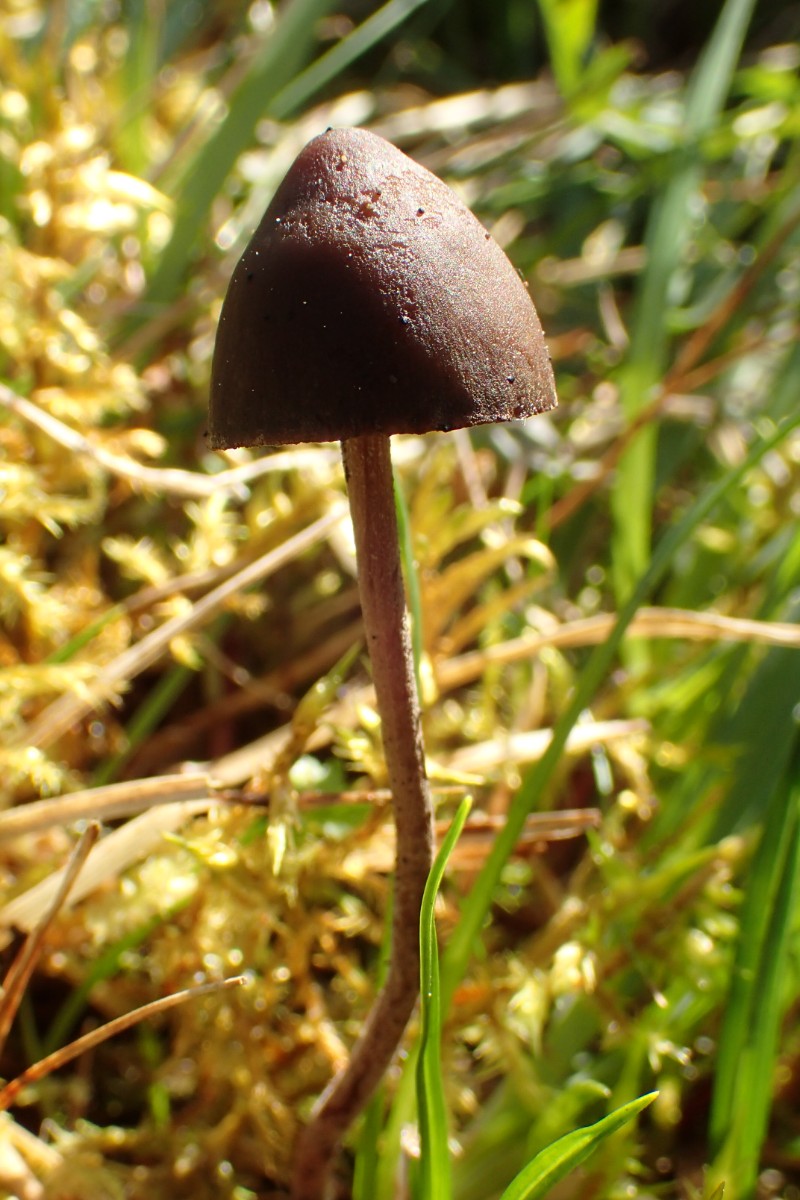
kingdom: Fungi
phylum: Basidiomycota
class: Agaricomycetes
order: Agaricales
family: Bolbitiaceae
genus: Panaeolus
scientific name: Panaeolus acuminatus
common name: høj glanshat
